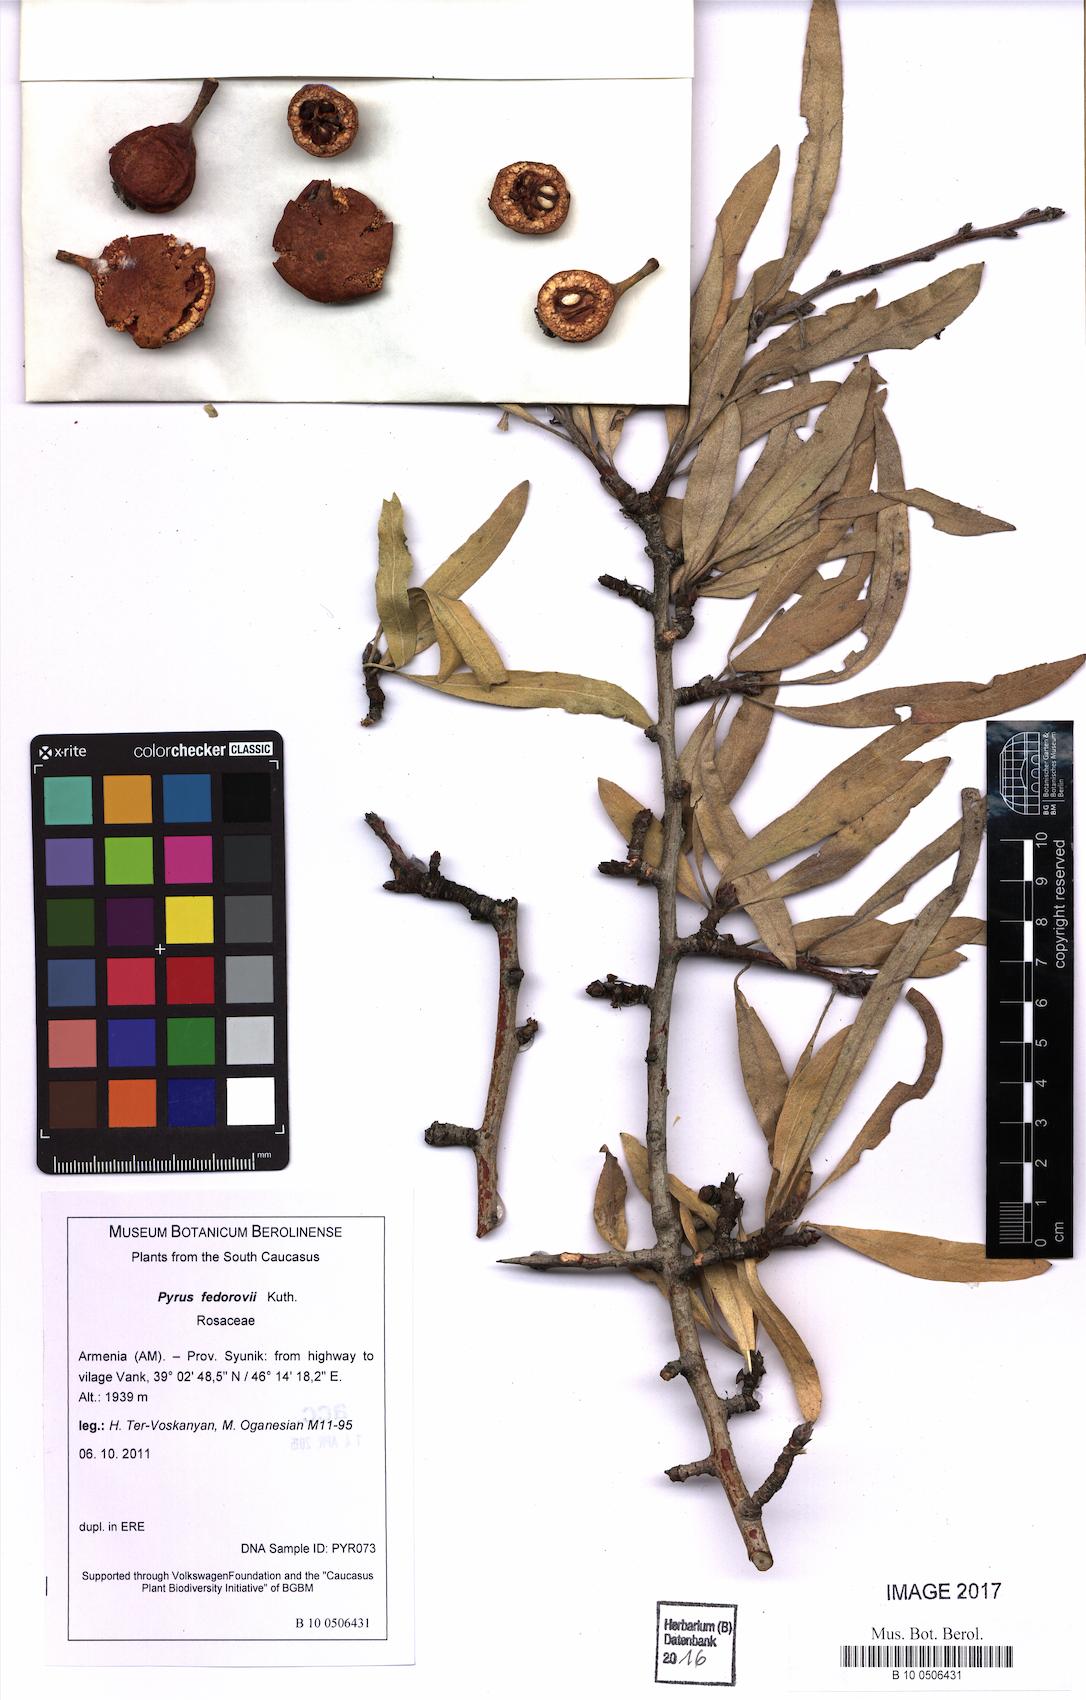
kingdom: Plantae
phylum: Tracheophyta
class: Magnoliopsida
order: Rosales
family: Rosaceae
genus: Pyrus
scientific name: Pyrus fedorovii
